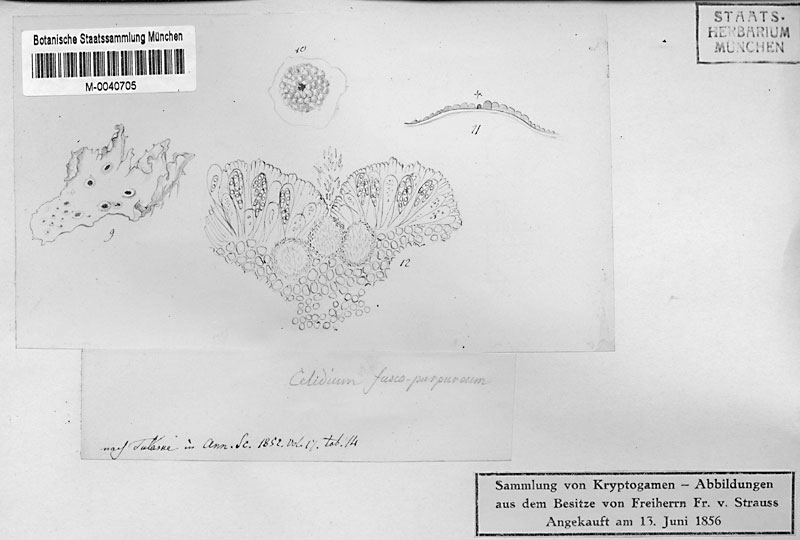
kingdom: Fungi
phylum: Ascomycota
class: Arthoniomycetes
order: Arthoniales
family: Arthoniaceae
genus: Arthonia
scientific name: Arthonia fuscopurpurea
